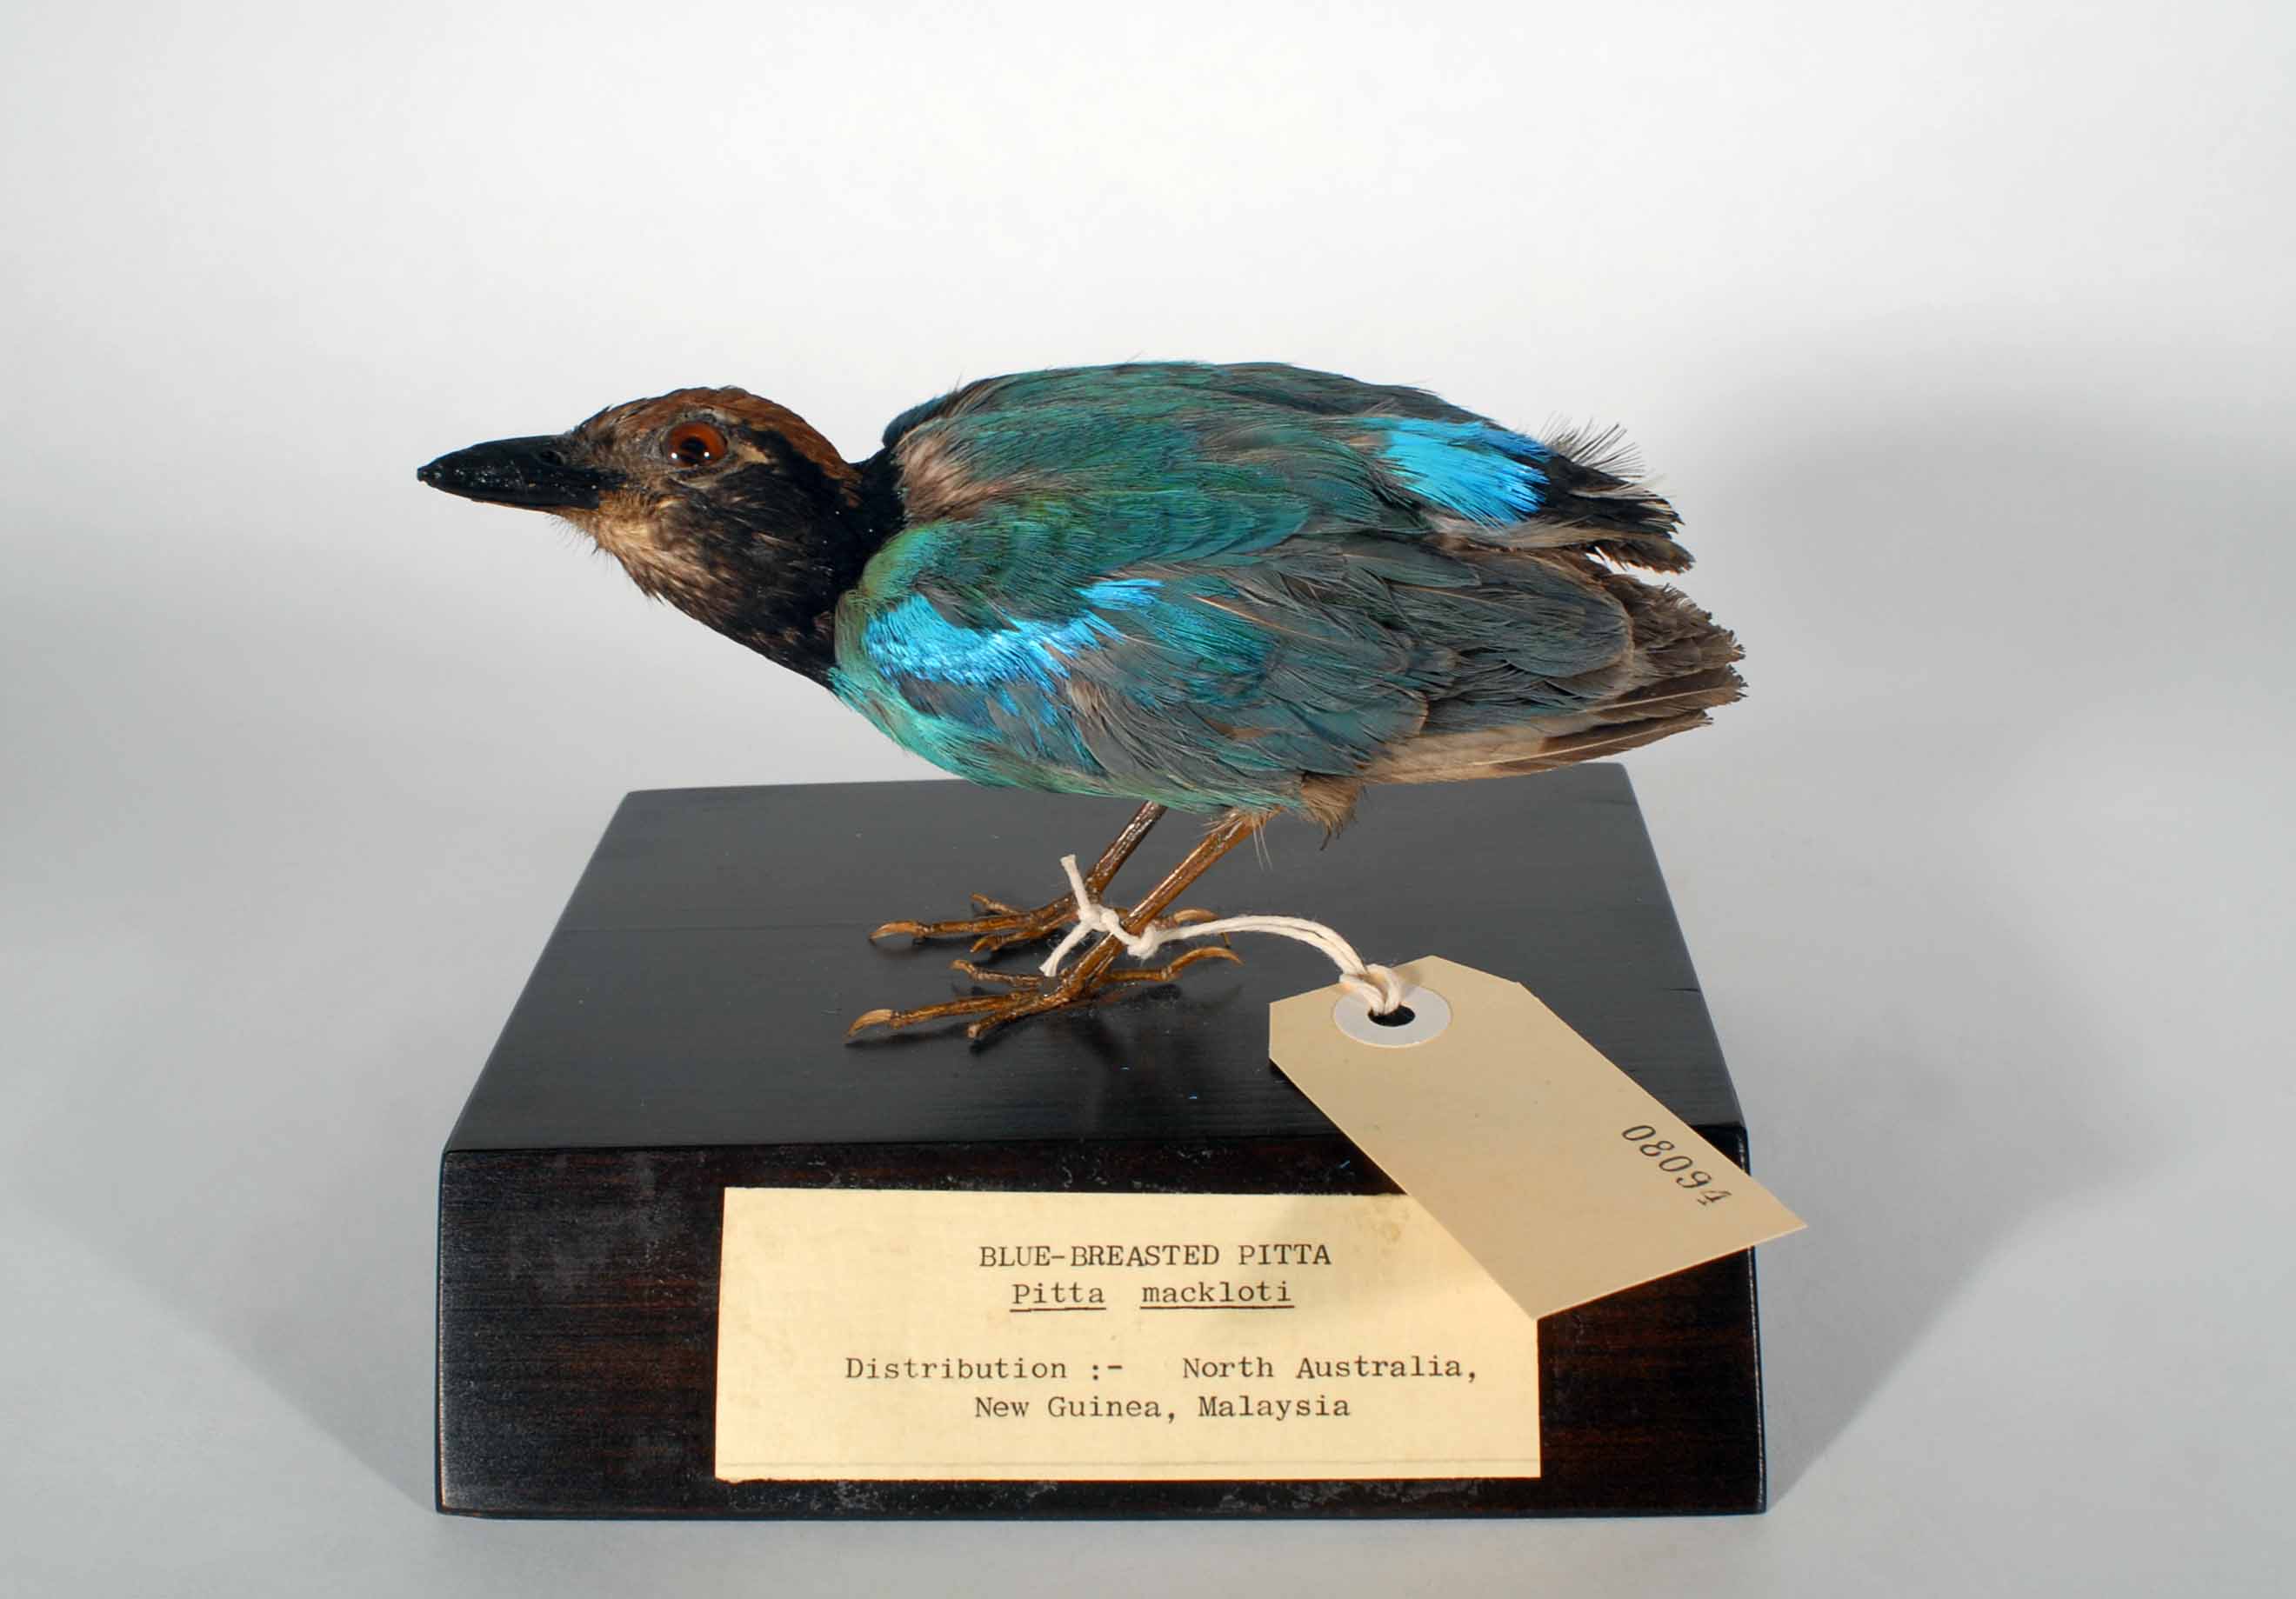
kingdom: Animalia
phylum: Chordata
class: Aves
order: Passeriformes
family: Pittidae
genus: Pitta
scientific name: Pitta erythrogaster
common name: Red-bellied pitta
